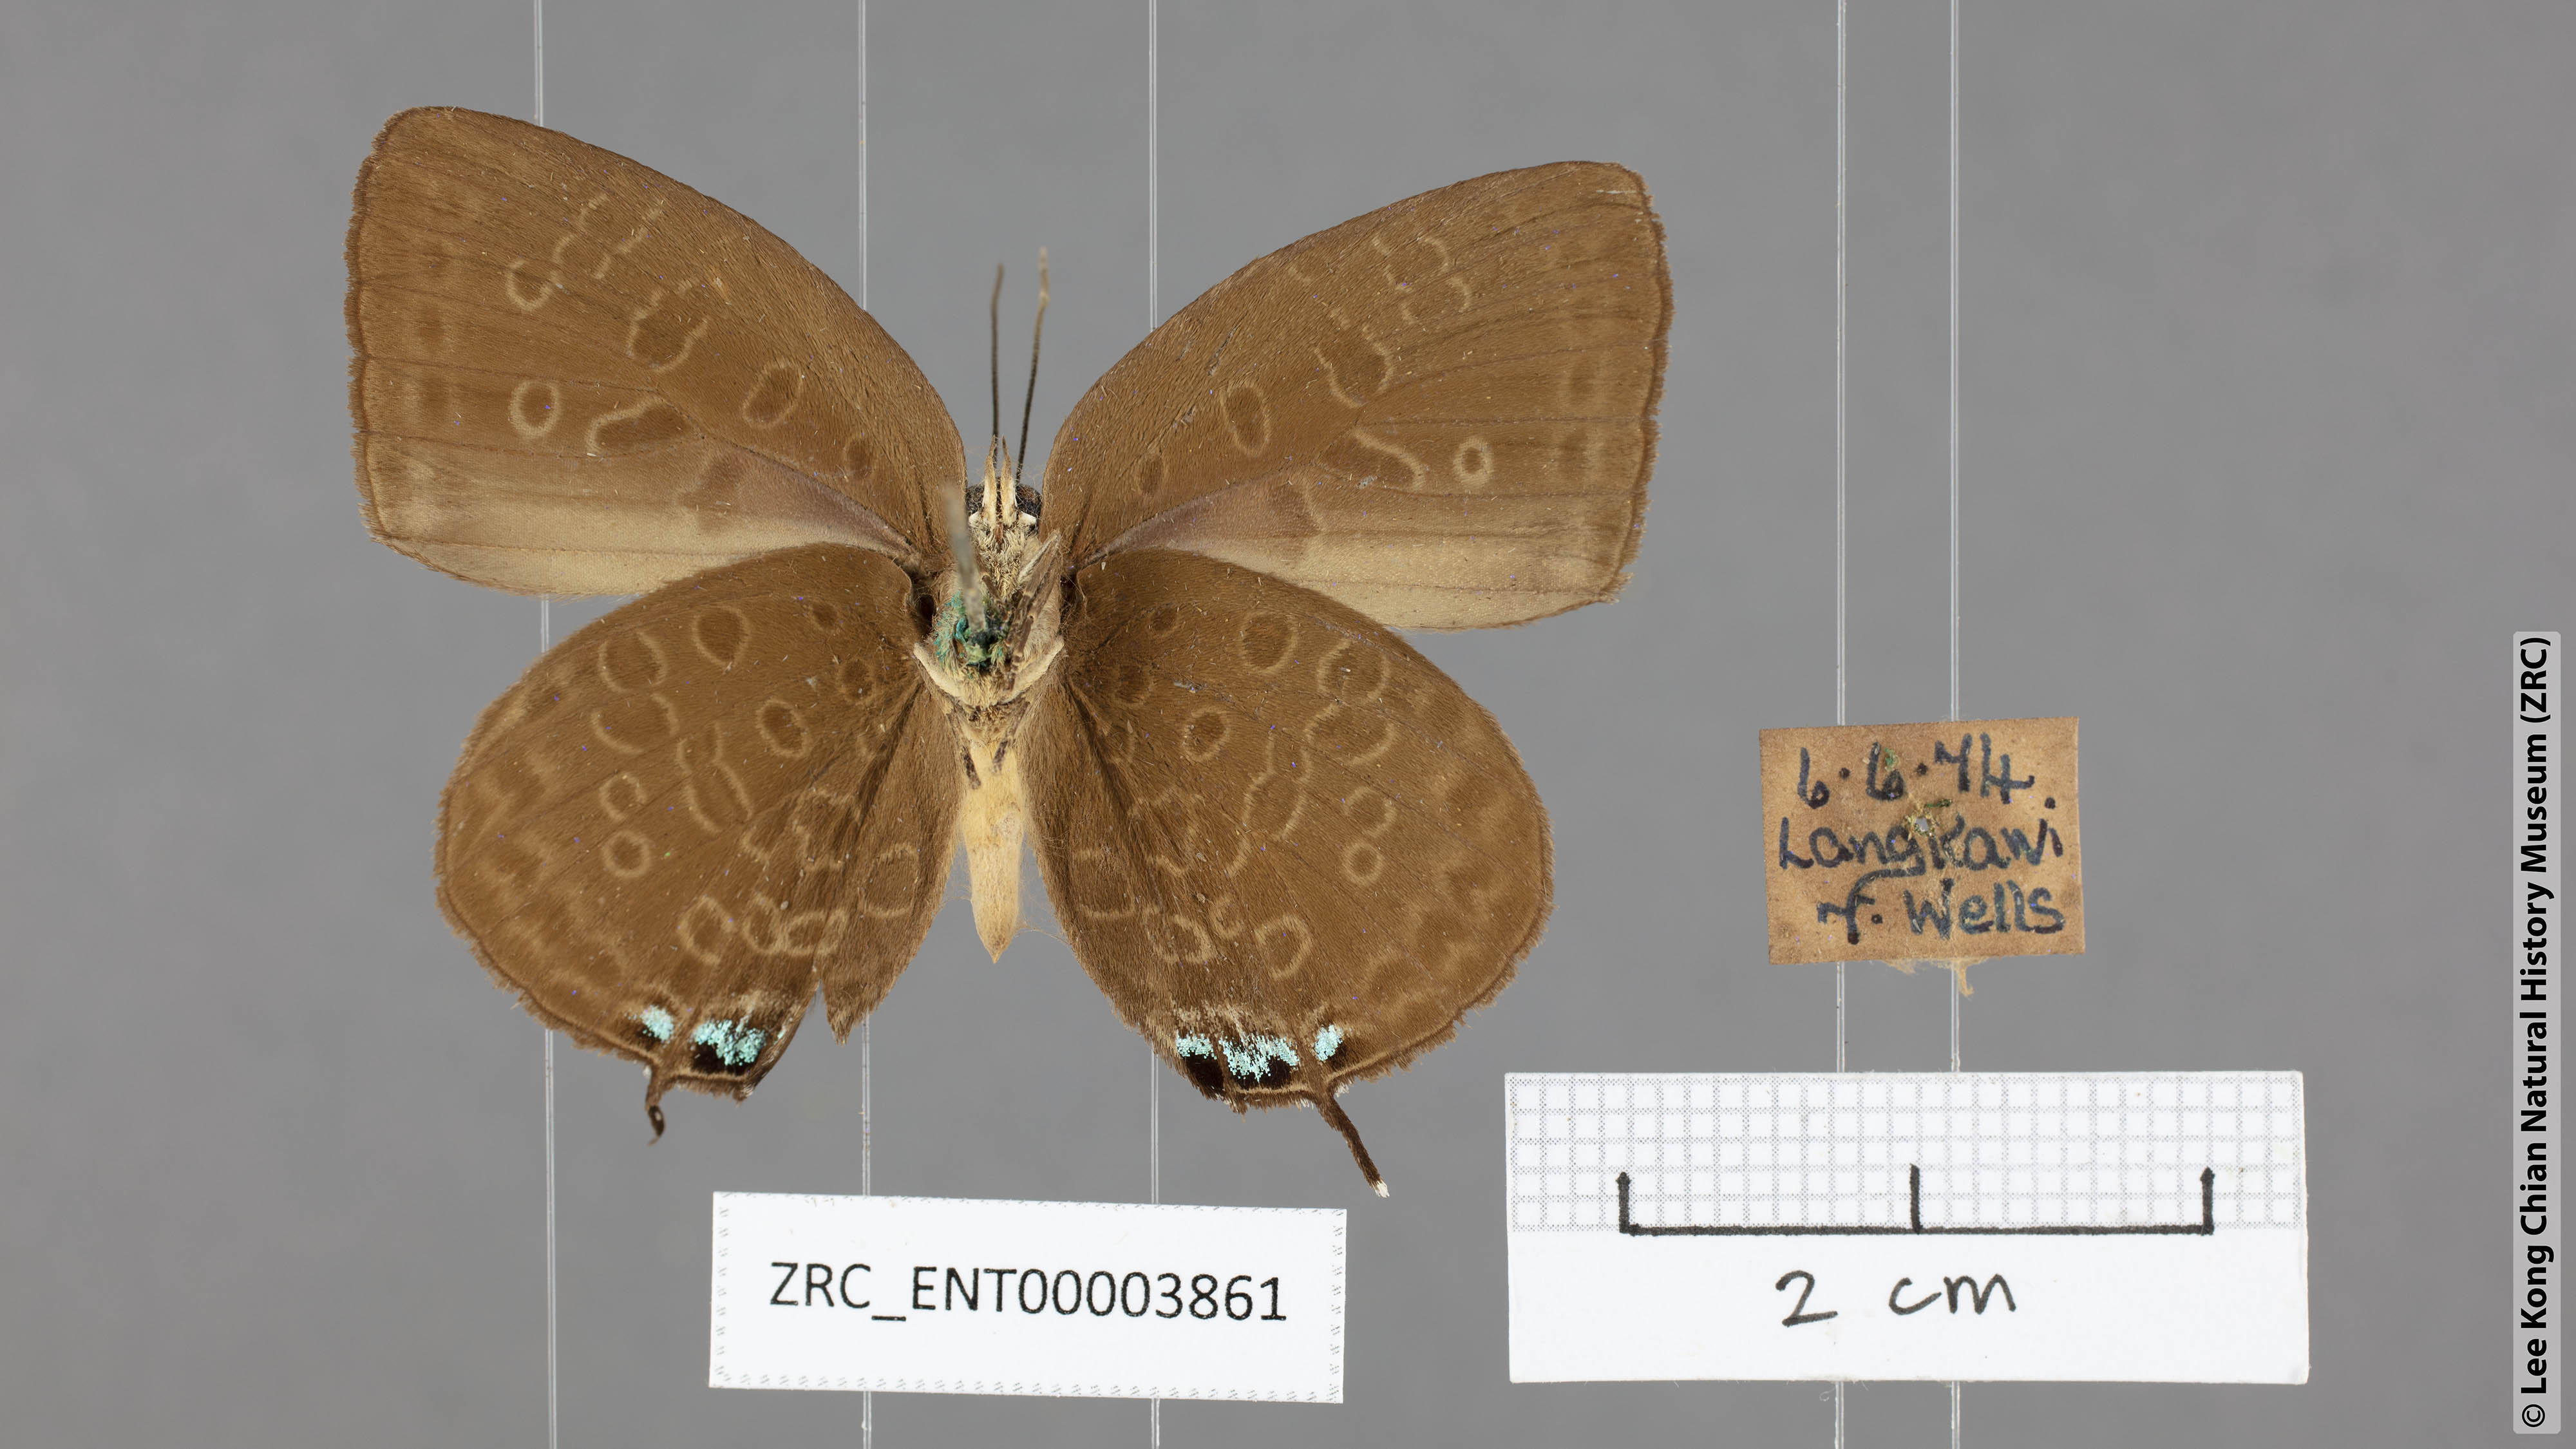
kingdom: Animalia
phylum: Arthropoda
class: Insecta
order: Lepidoptera
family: Lycaenidae
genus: Arhopala
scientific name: Arhopala atosia
